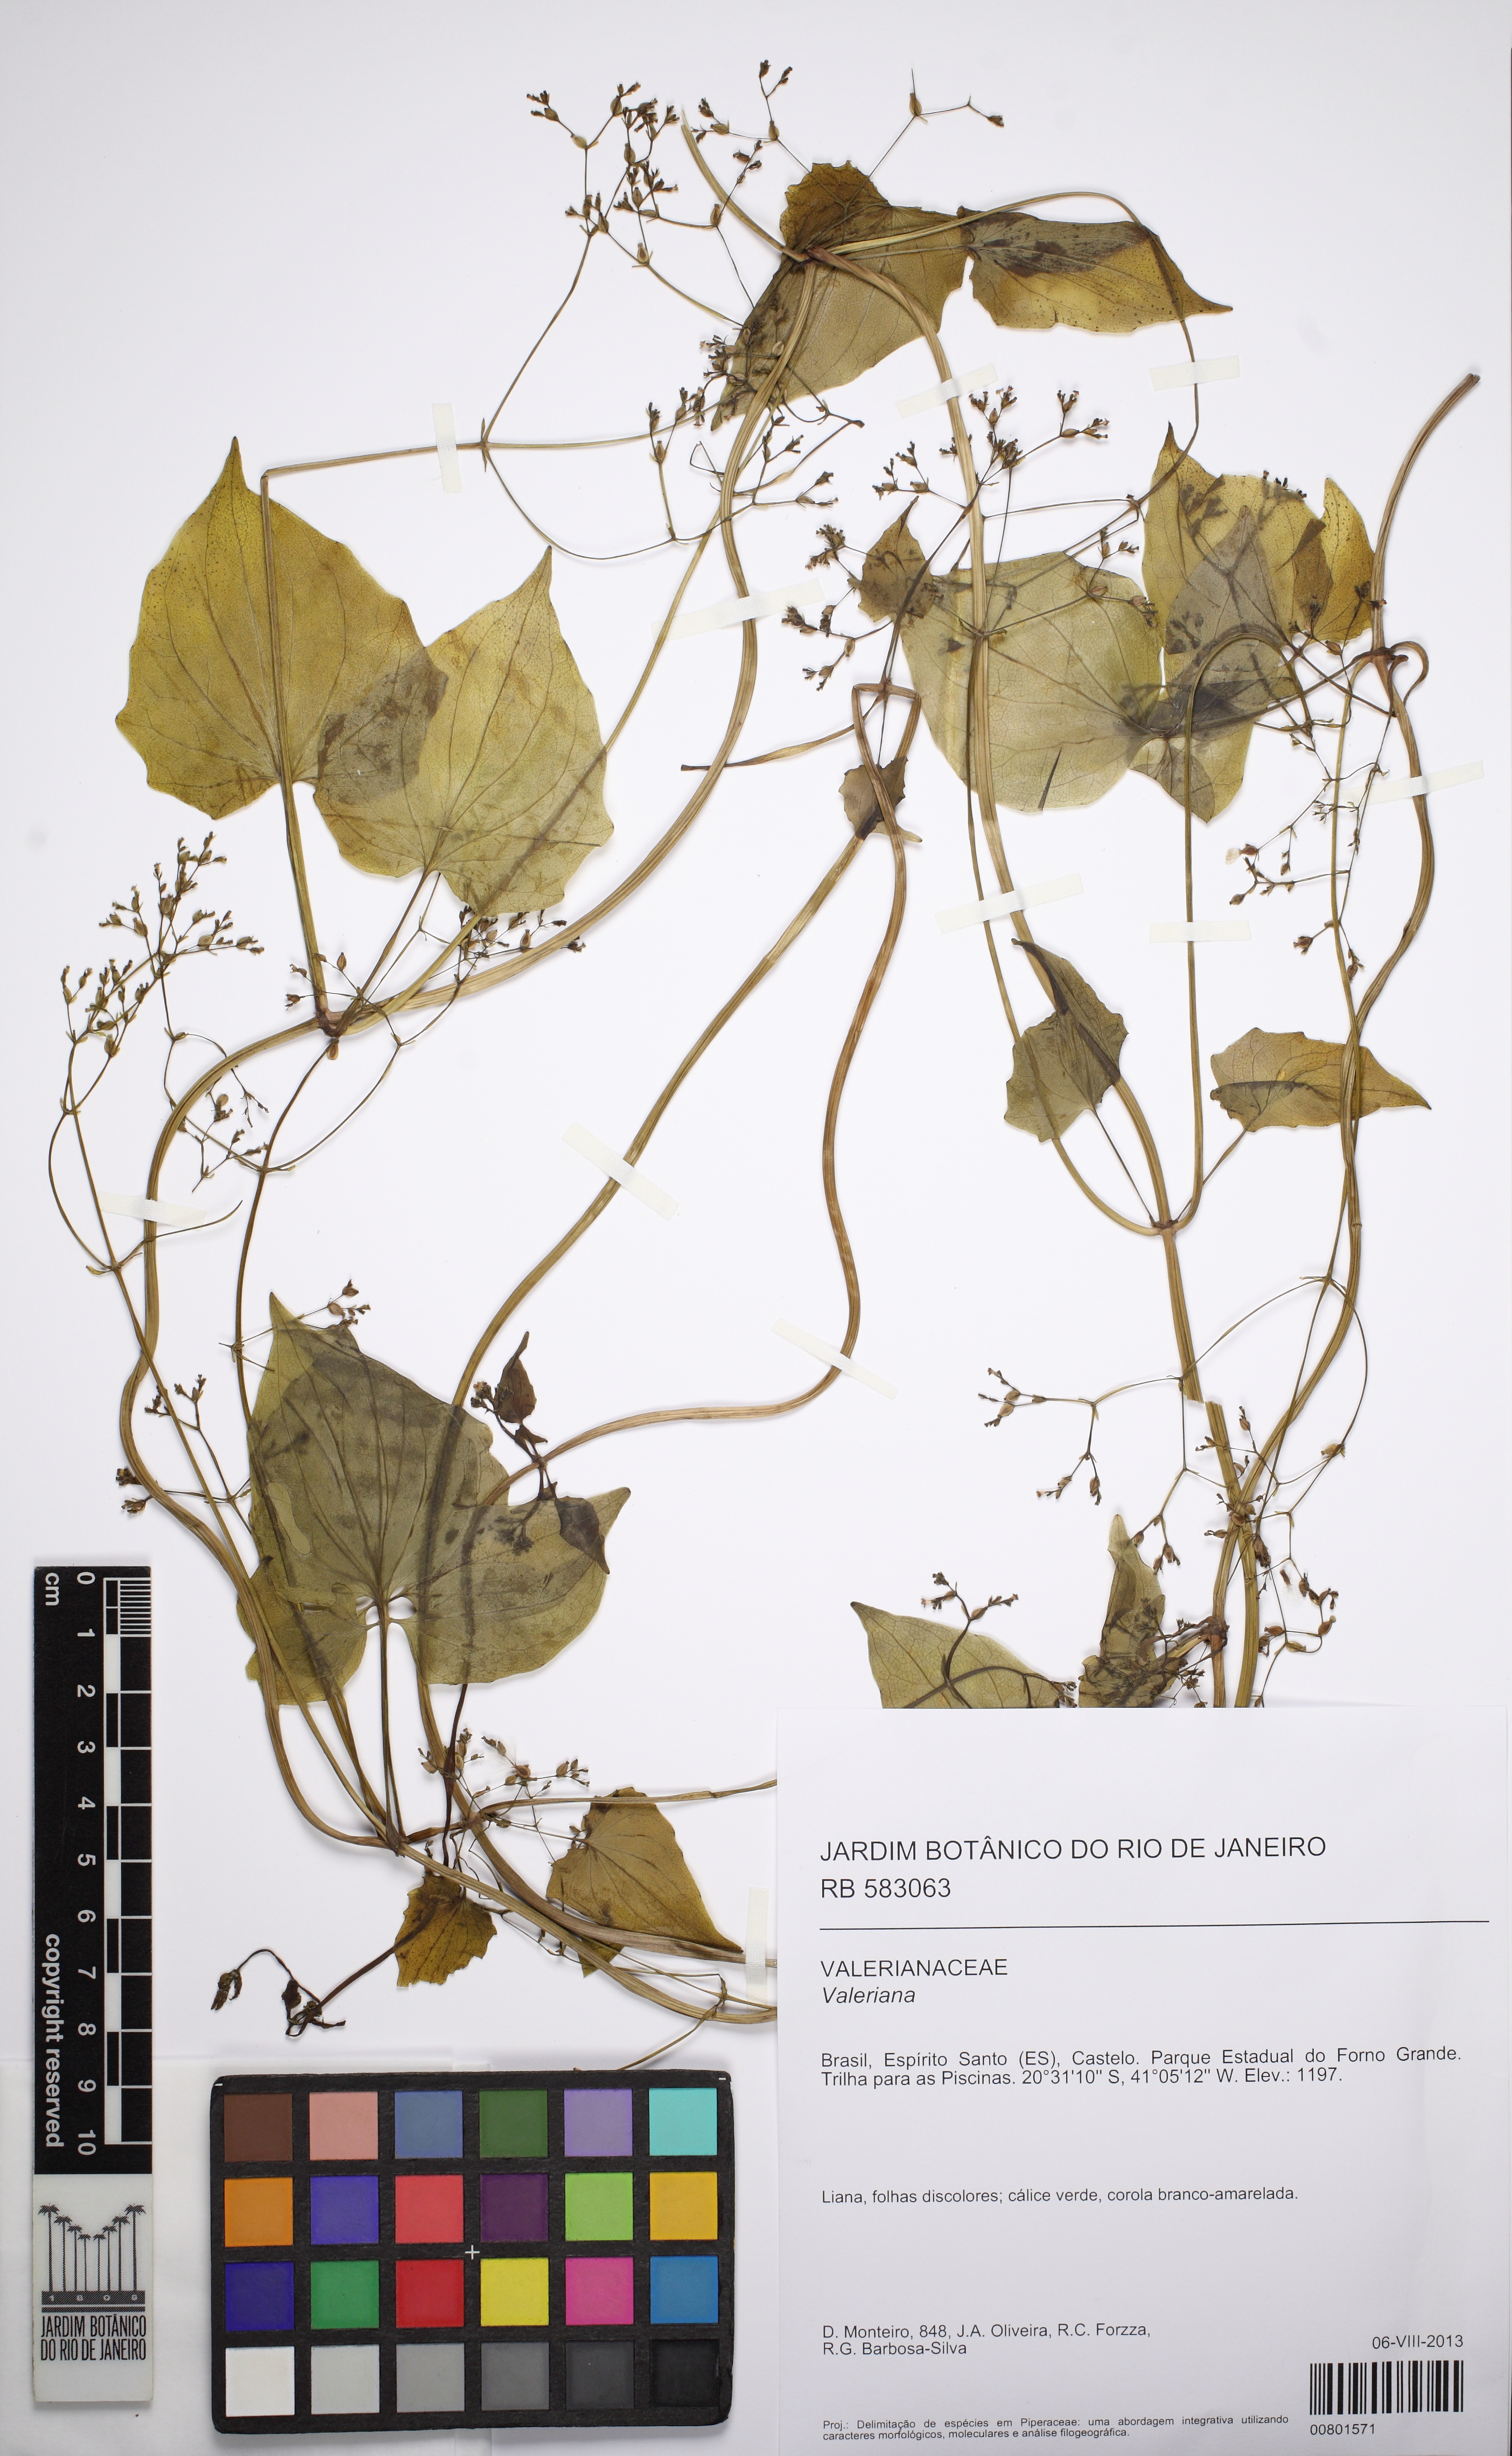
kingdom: Plantae
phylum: Tracheophyta
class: Magnoliopsida
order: Dipsacales
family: Caprifoliaceae
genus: Valeriana
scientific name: Valeriana
